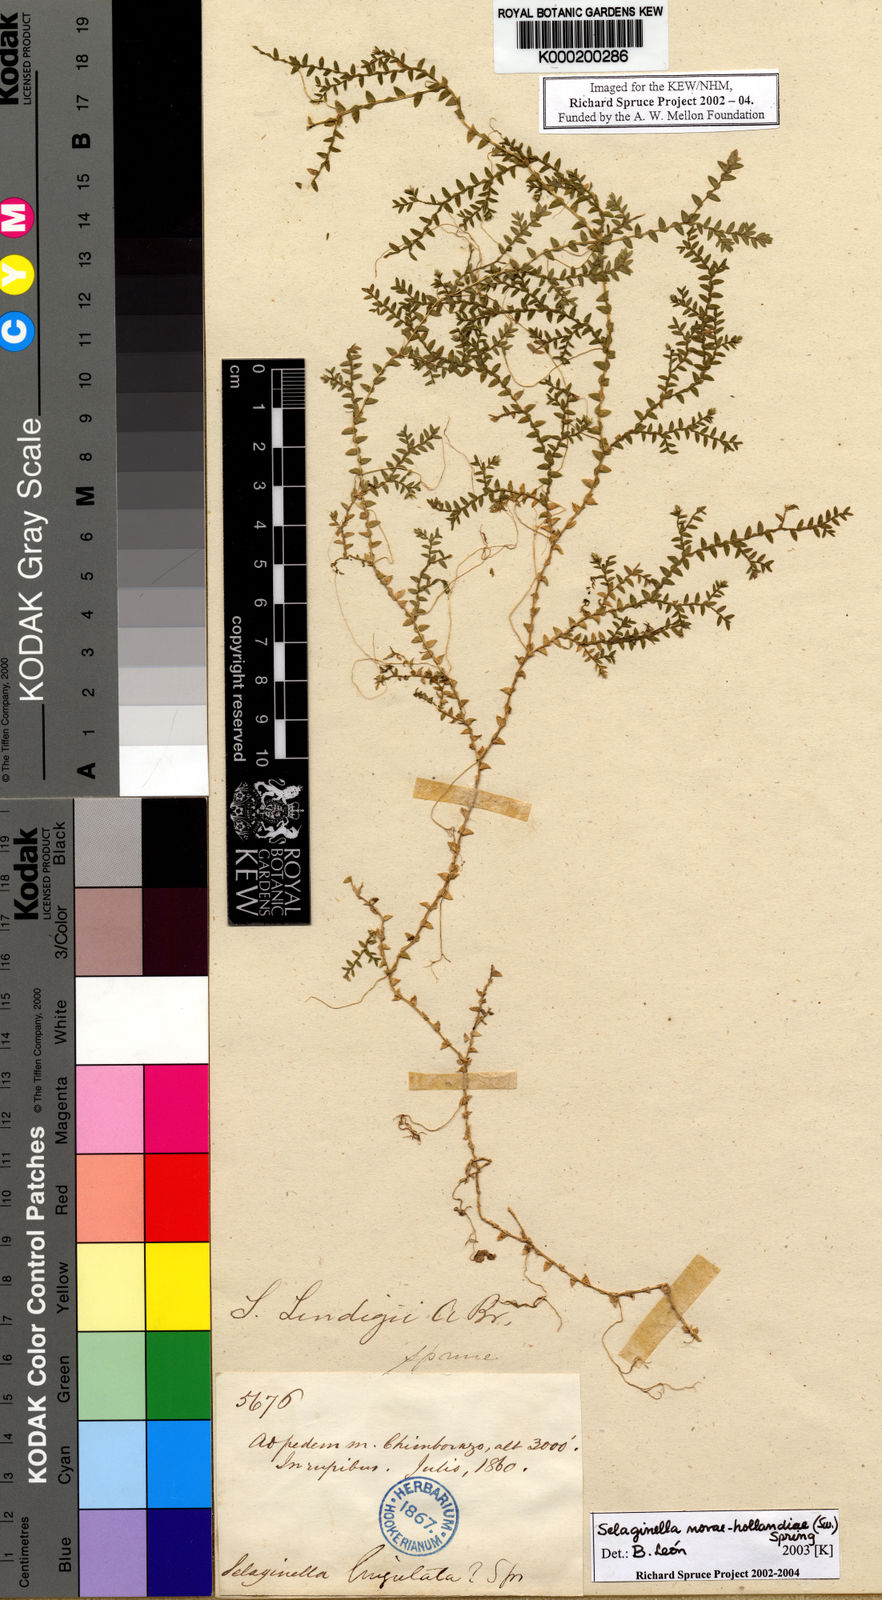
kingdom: Plantae
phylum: Tracheophyta
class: Lycopodiopsida
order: Selaginellales
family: Selaginellaceae
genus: Selaginella
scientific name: Selaginella novae-hollandiae
